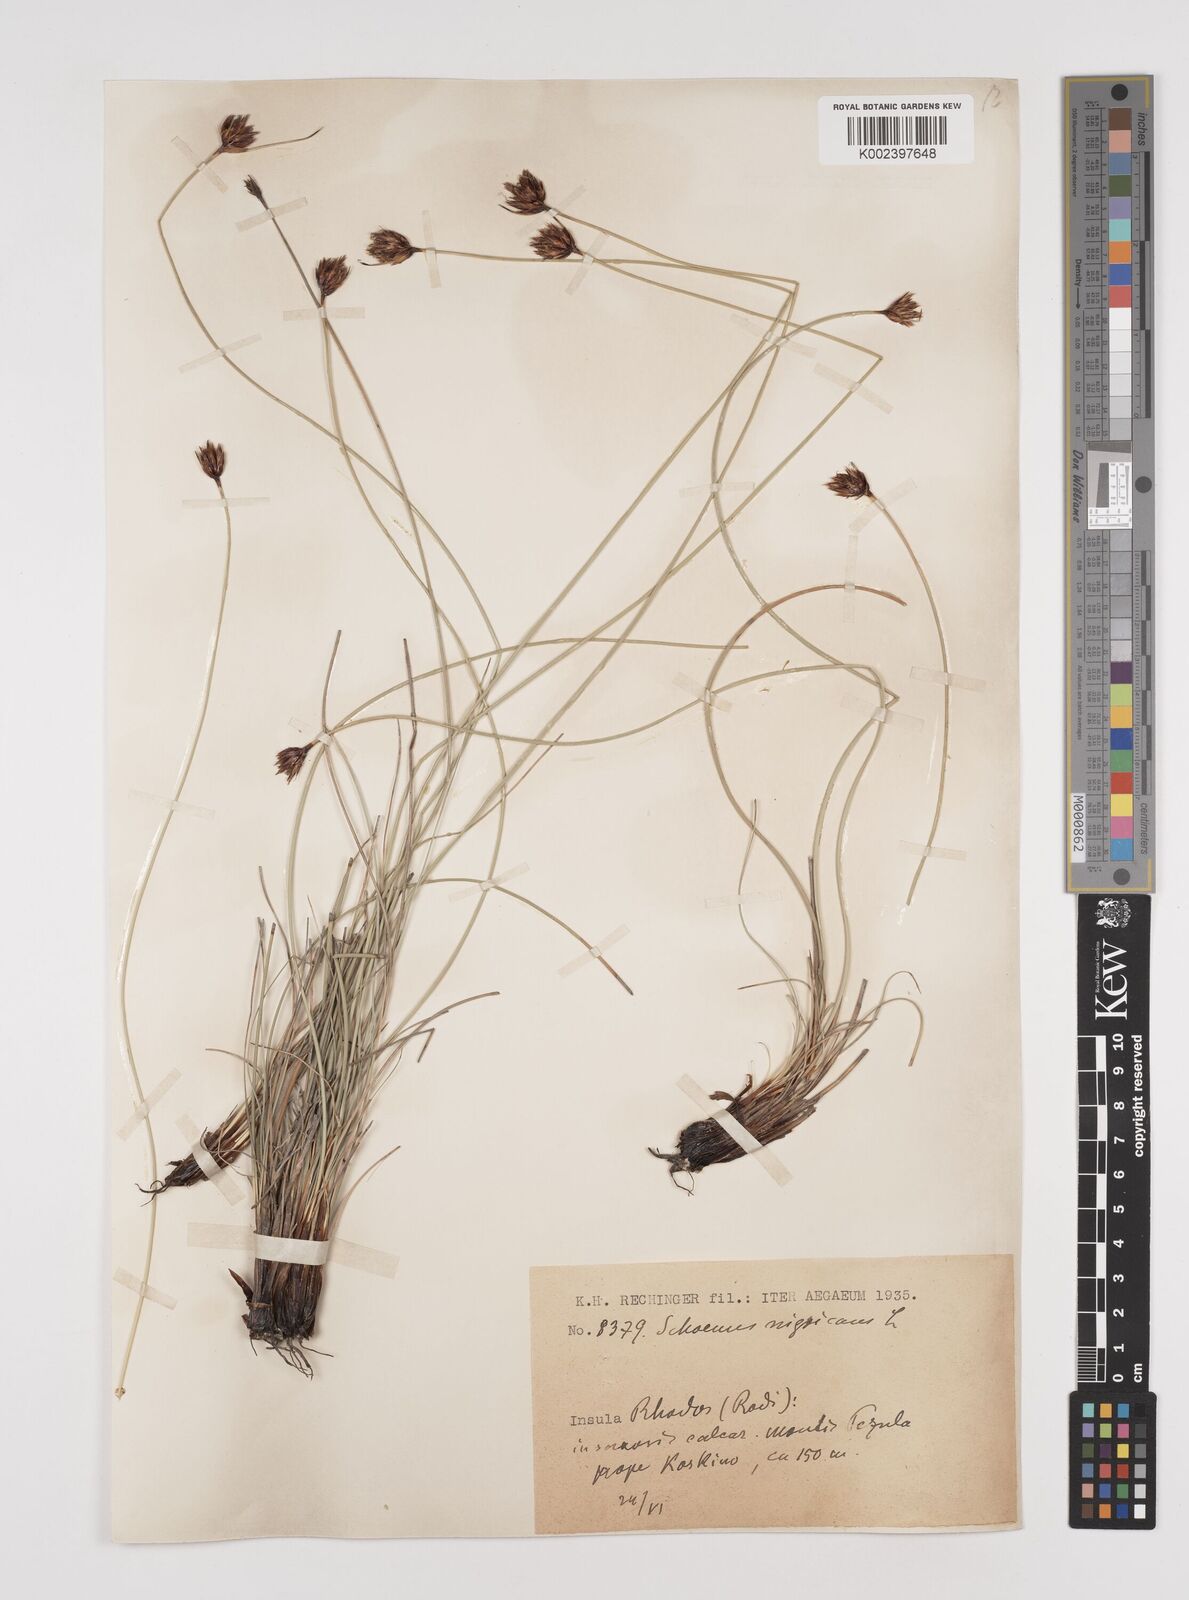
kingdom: Plantae
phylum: Tracheophyta
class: Liliopsida
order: Poales
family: Cyperaceae
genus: Schoenus
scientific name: Schoenus nigricans
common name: Black bog-rush
